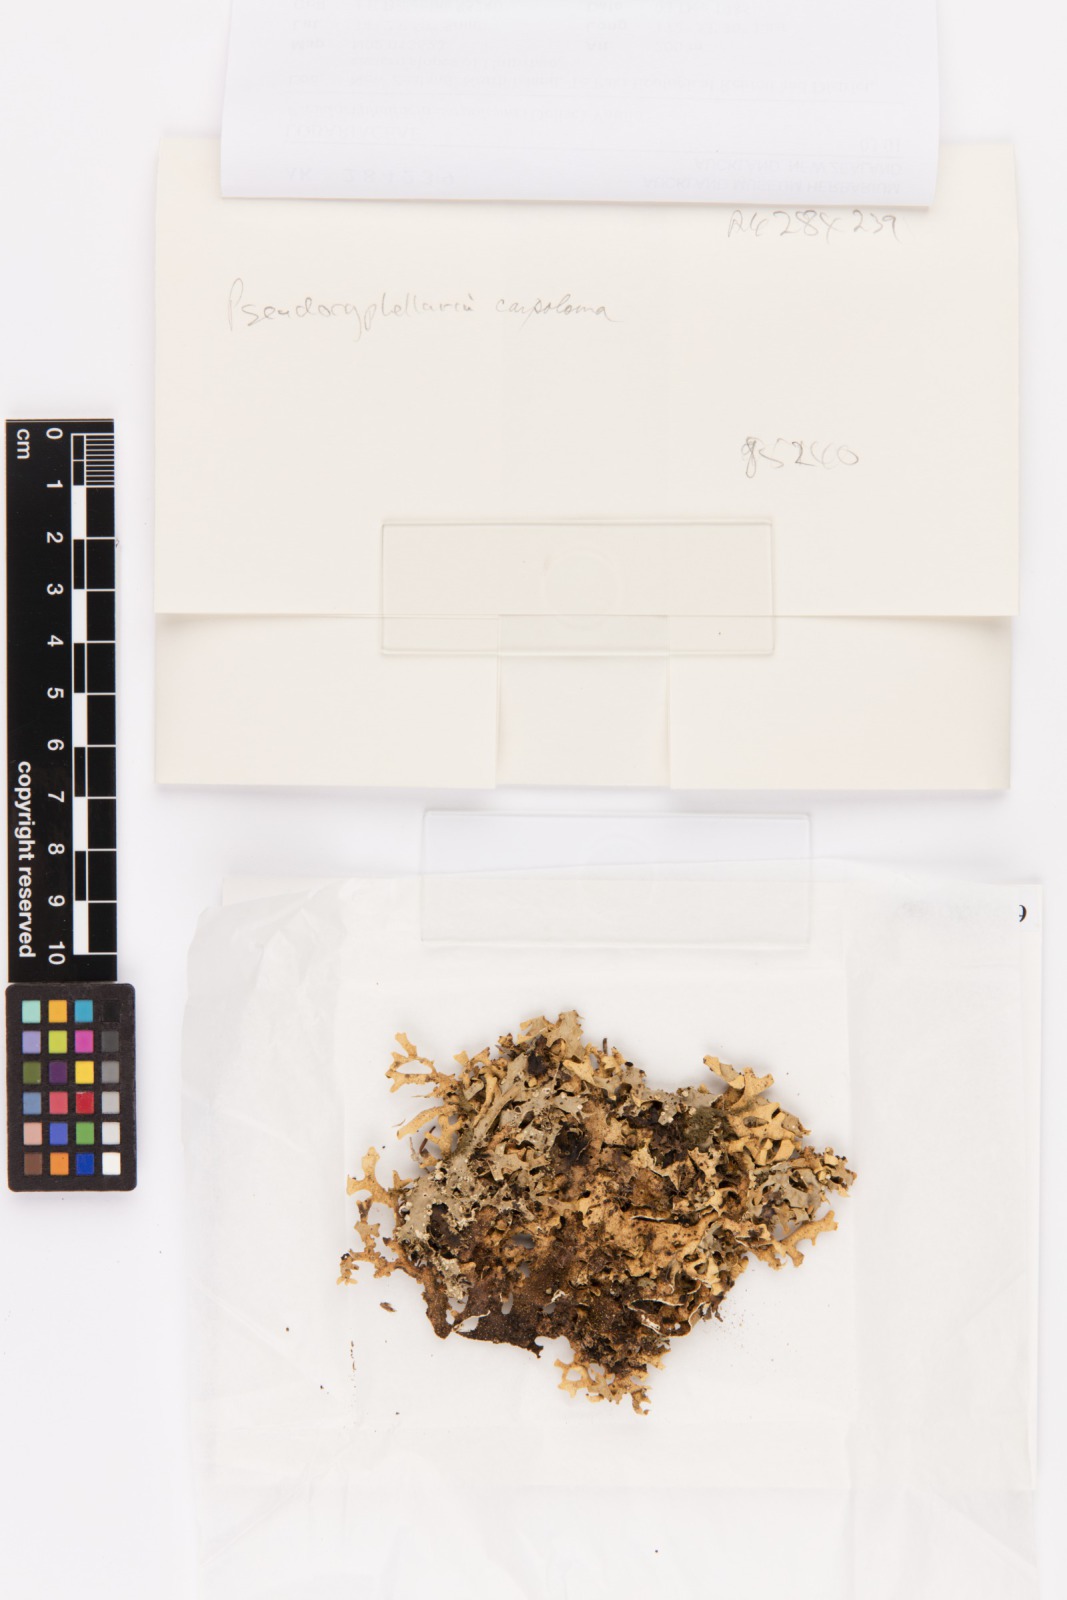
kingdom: Fungi
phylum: Ascomycota
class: Lecanoromycetes
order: Peltigerales
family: Lobariaceae
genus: Pseudocyphellaria
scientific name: Pseudocyphellaria carpoloma
